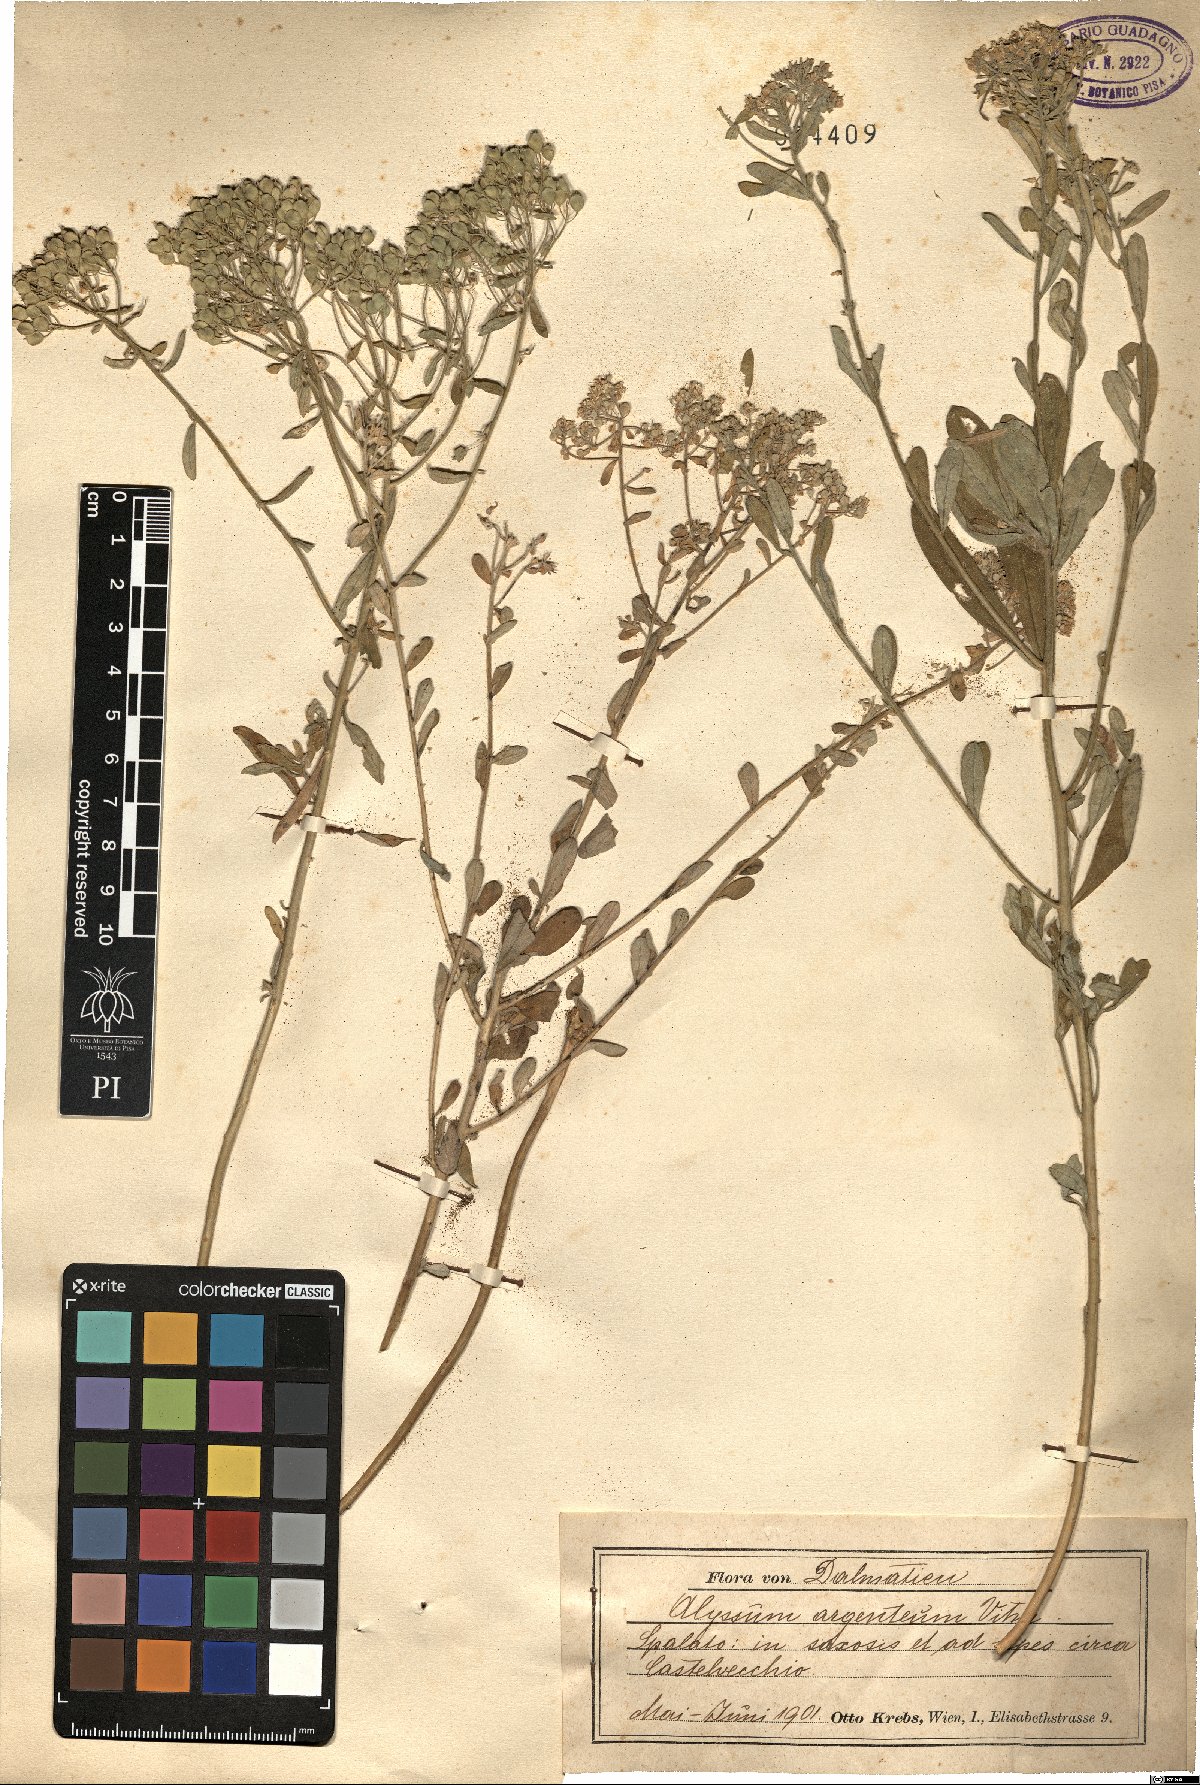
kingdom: Plantae
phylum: Tracheophyta
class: Magnoliopsida
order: Brassicales
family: Brassicaceae
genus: Odontarrhena
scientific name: Odontarrhena argentea
